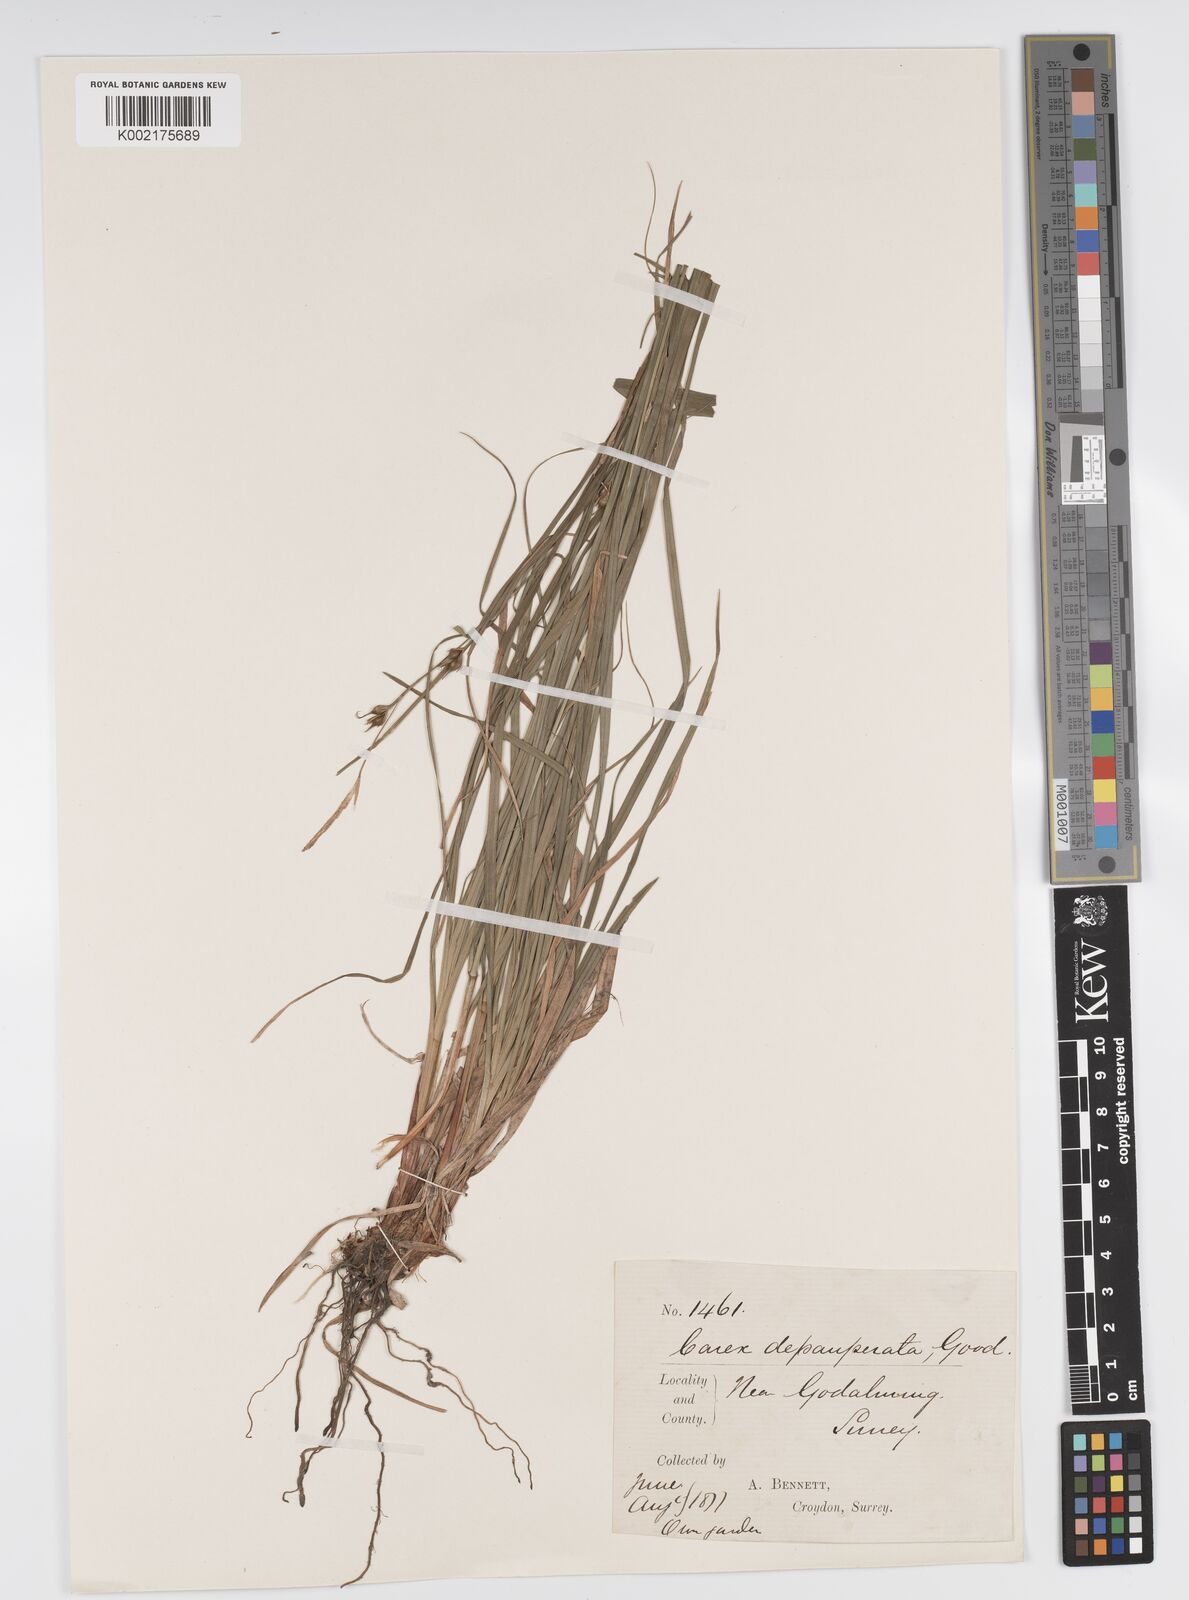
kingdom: Plantae
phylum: Tracheophyta
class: Liliopsida
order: Poales
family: Cyperaceae
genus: Carex
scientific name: Carex vaginata
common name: Sheathed sedge
